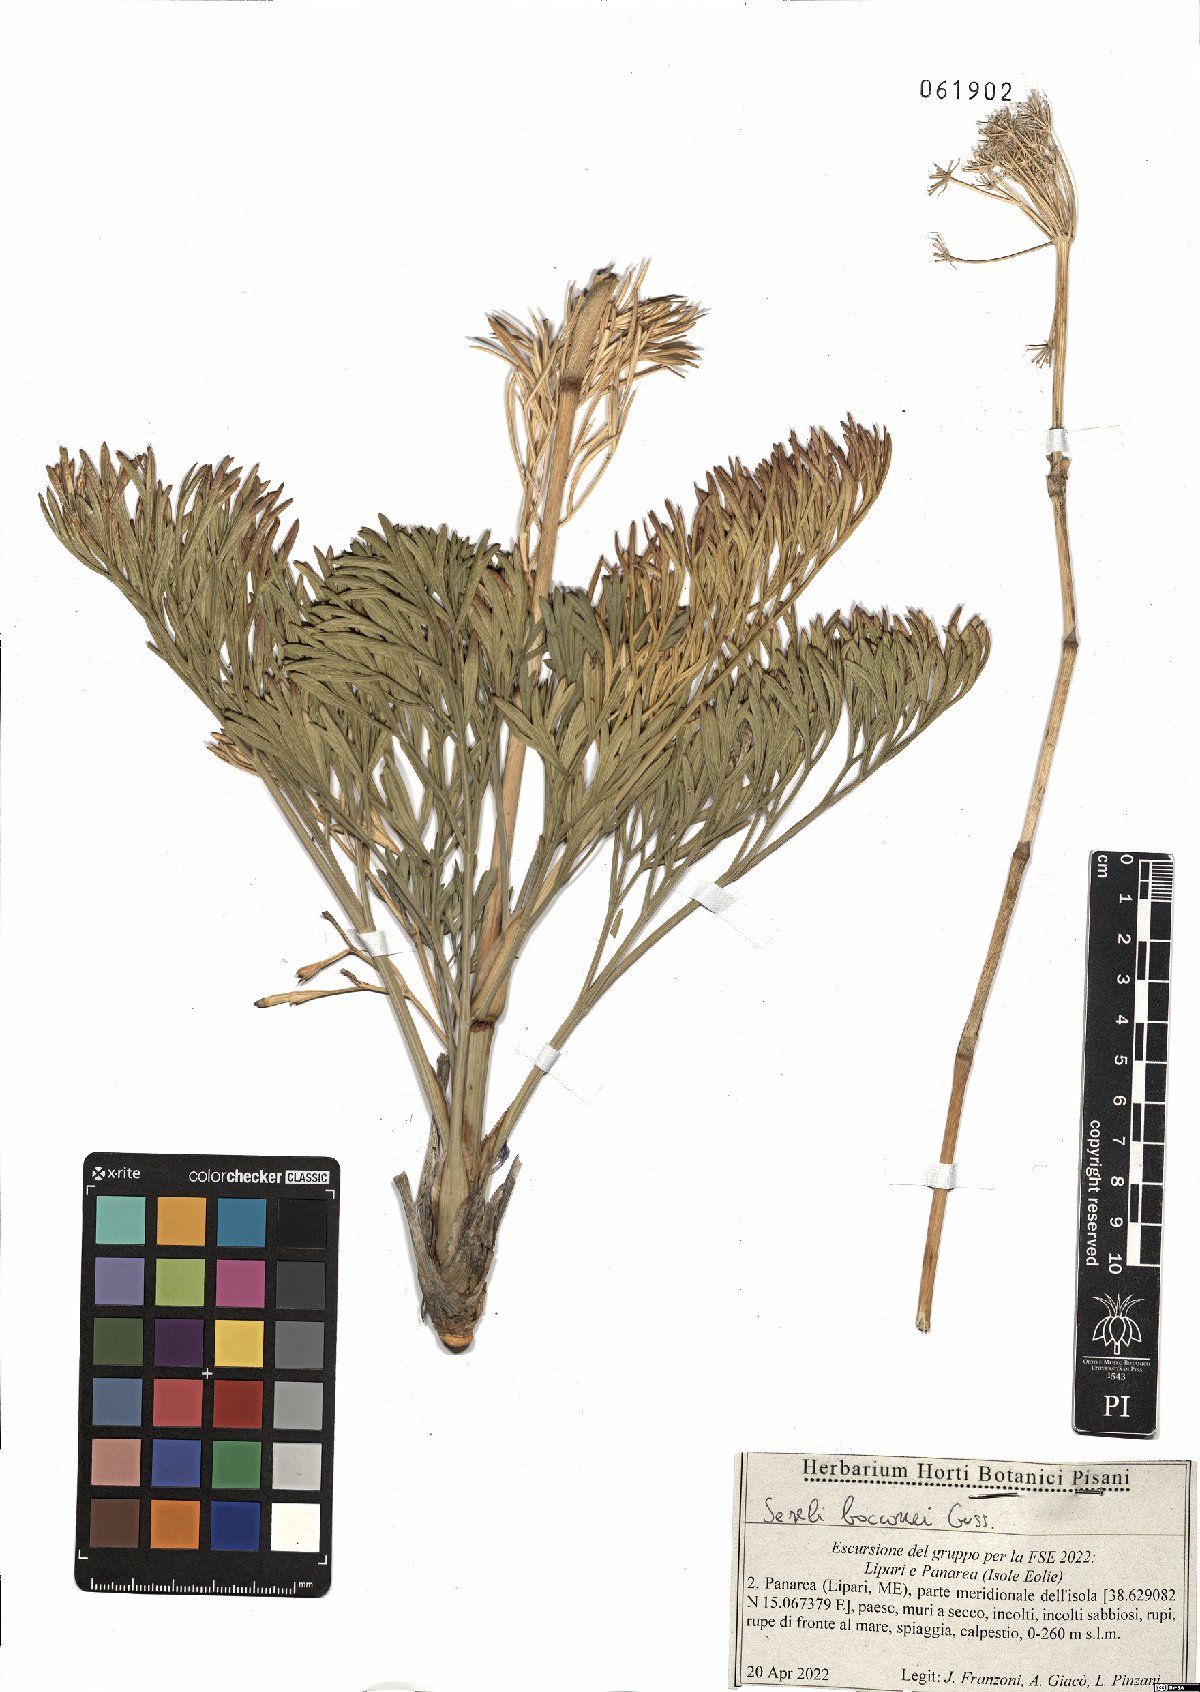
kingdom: Plantae
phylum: Tracheophyta
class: Magnoliopsida
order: Apiales
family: Apiaceae
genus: Seseli
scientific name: Seseli bocconei
